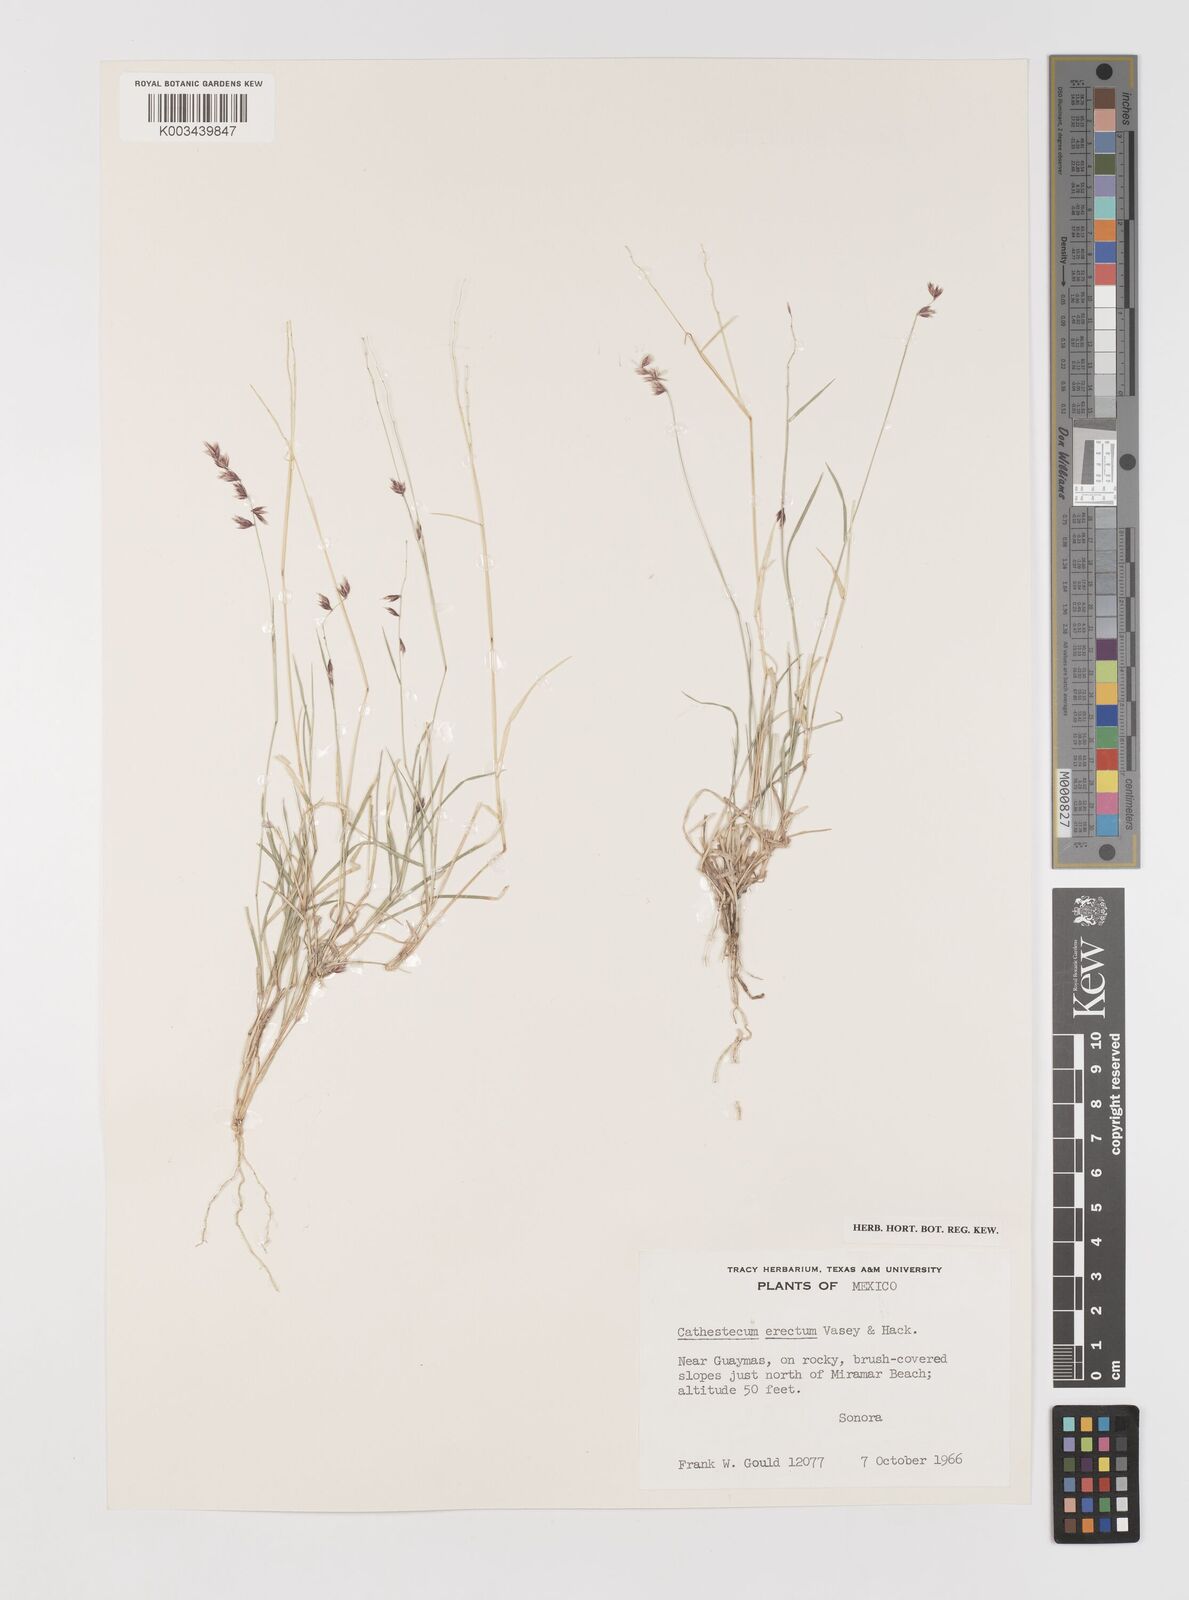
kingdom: Plantae
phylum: Tracheophyta
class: Liliopsida
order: Poales
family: Poaceae
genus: Bouteloua
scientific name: Bouteloua erecta
